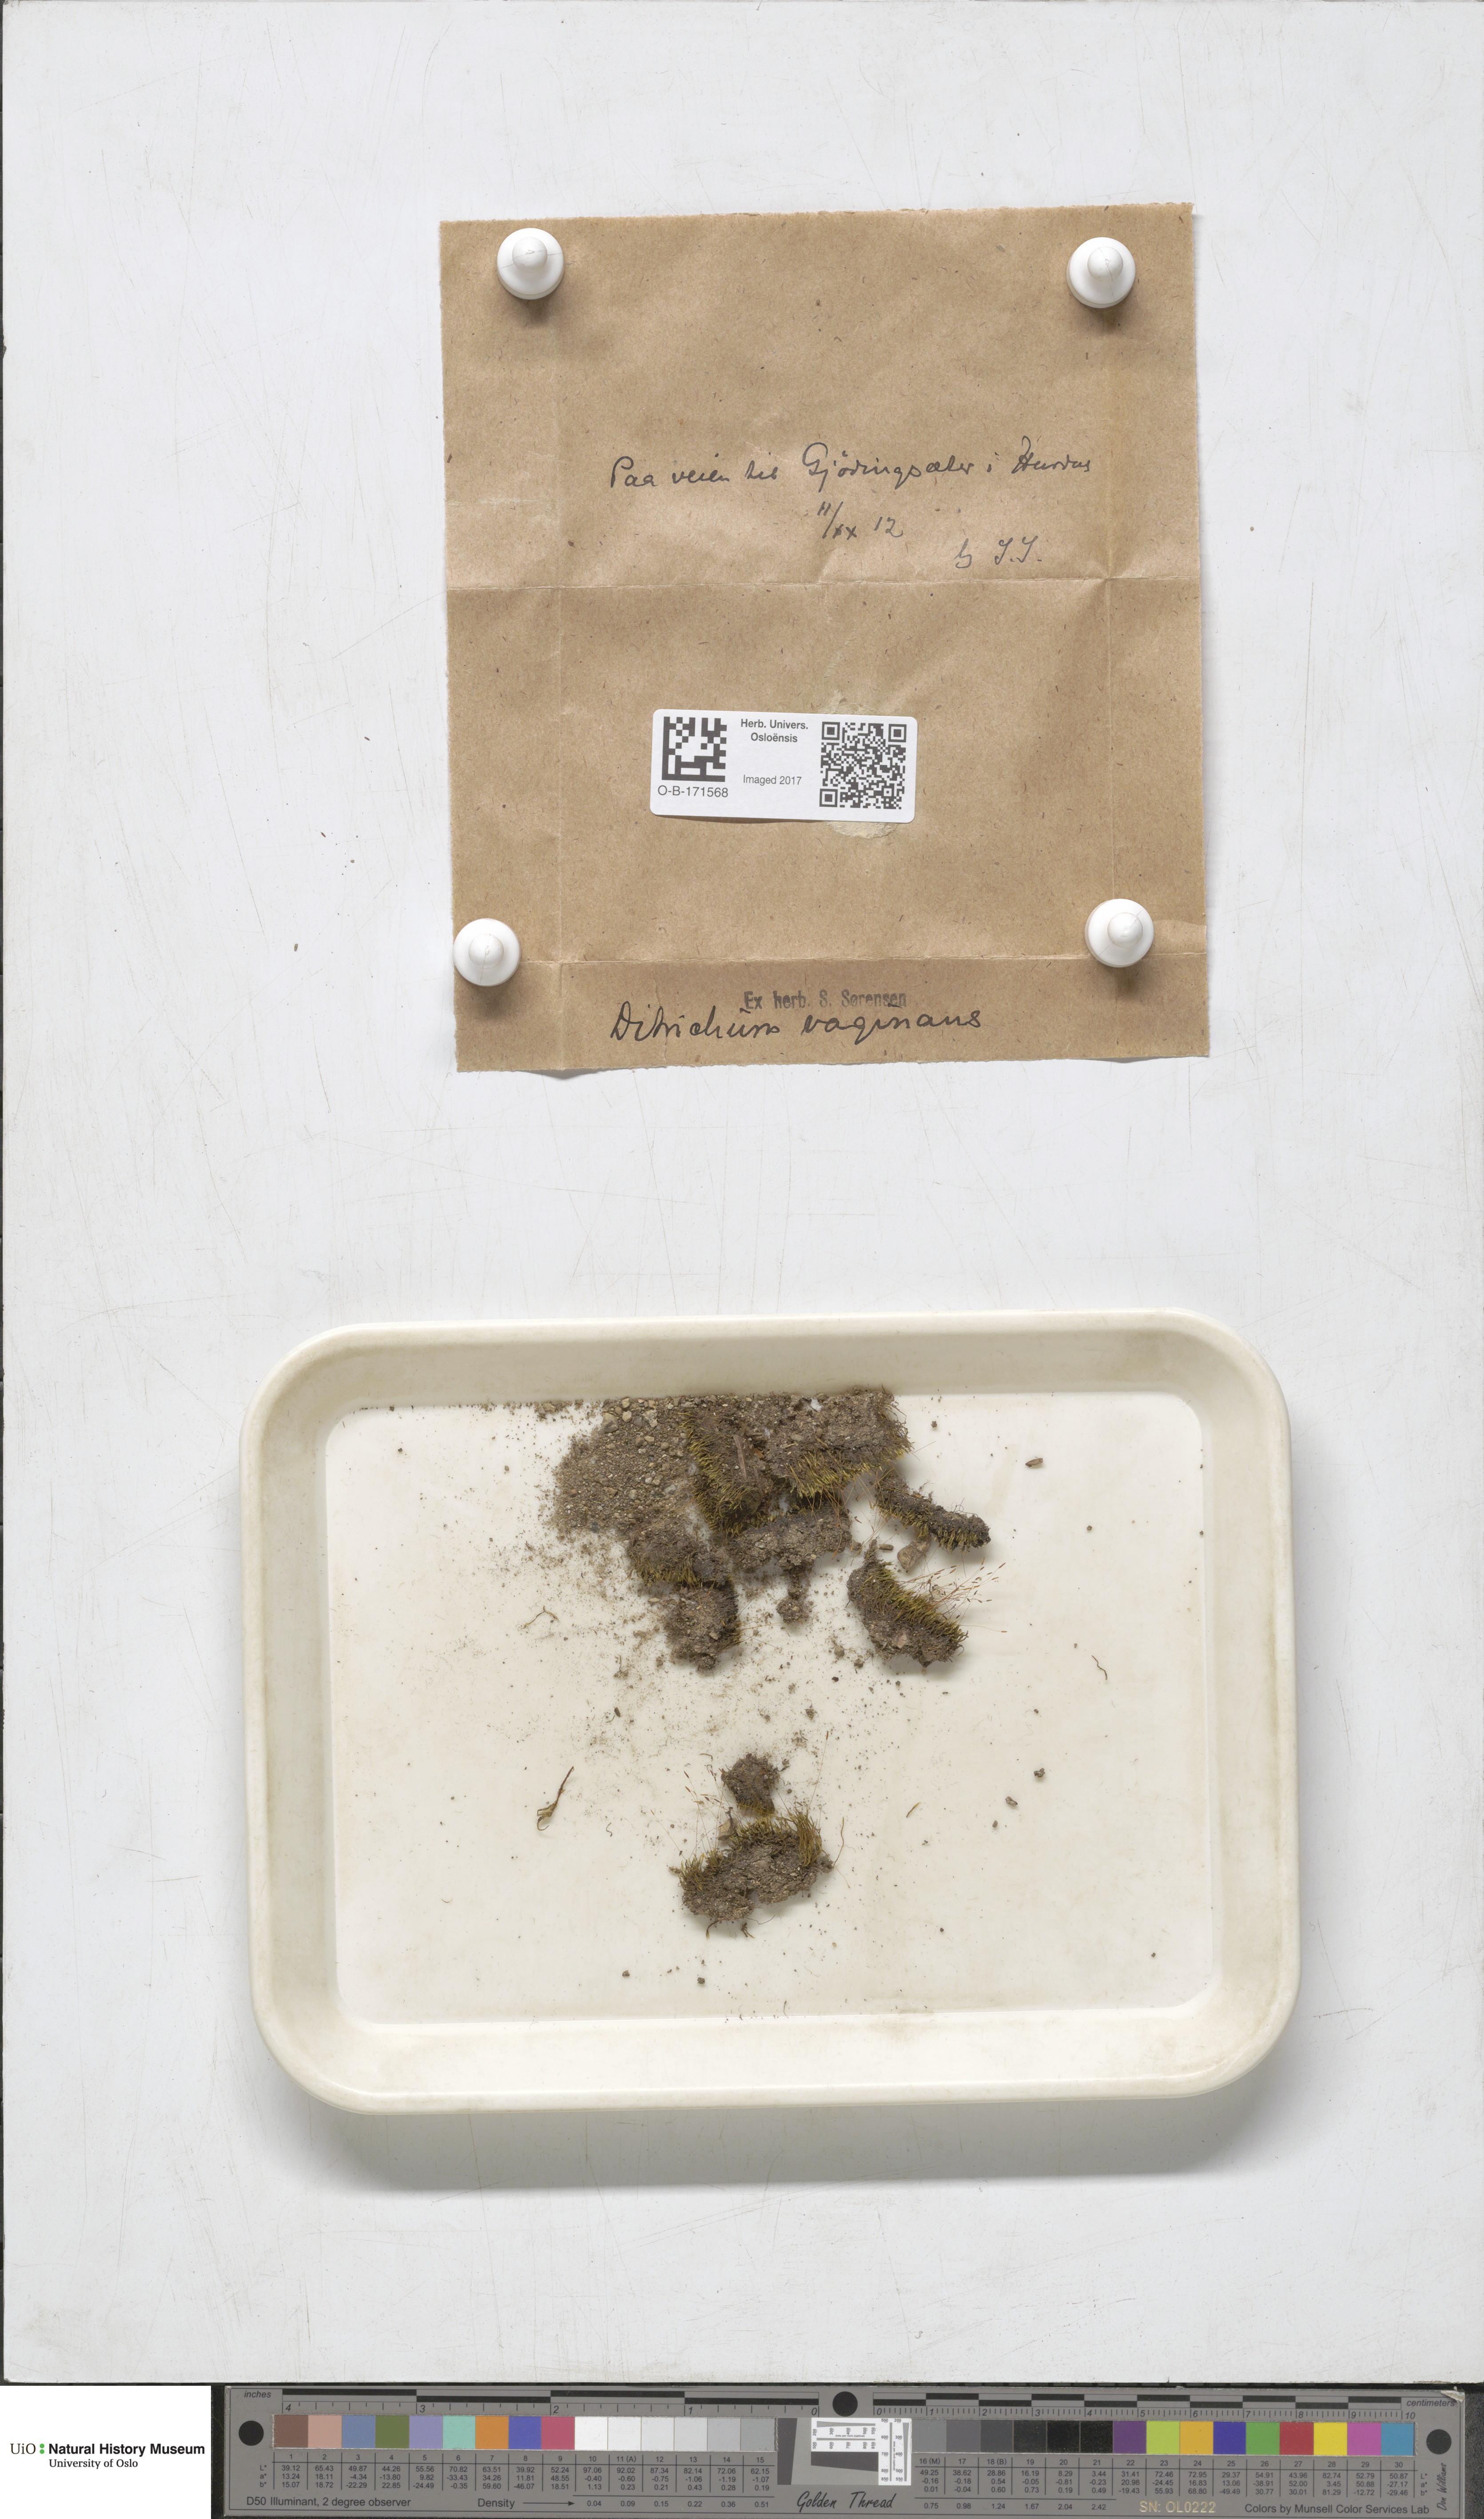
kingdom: Plantae
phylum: Bryophyta
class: Bryopsida
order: Dicranales
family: Ditrichaceae
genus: Ditrichum
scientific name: Ditrichum lineare
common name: Dark cow-hair moss
